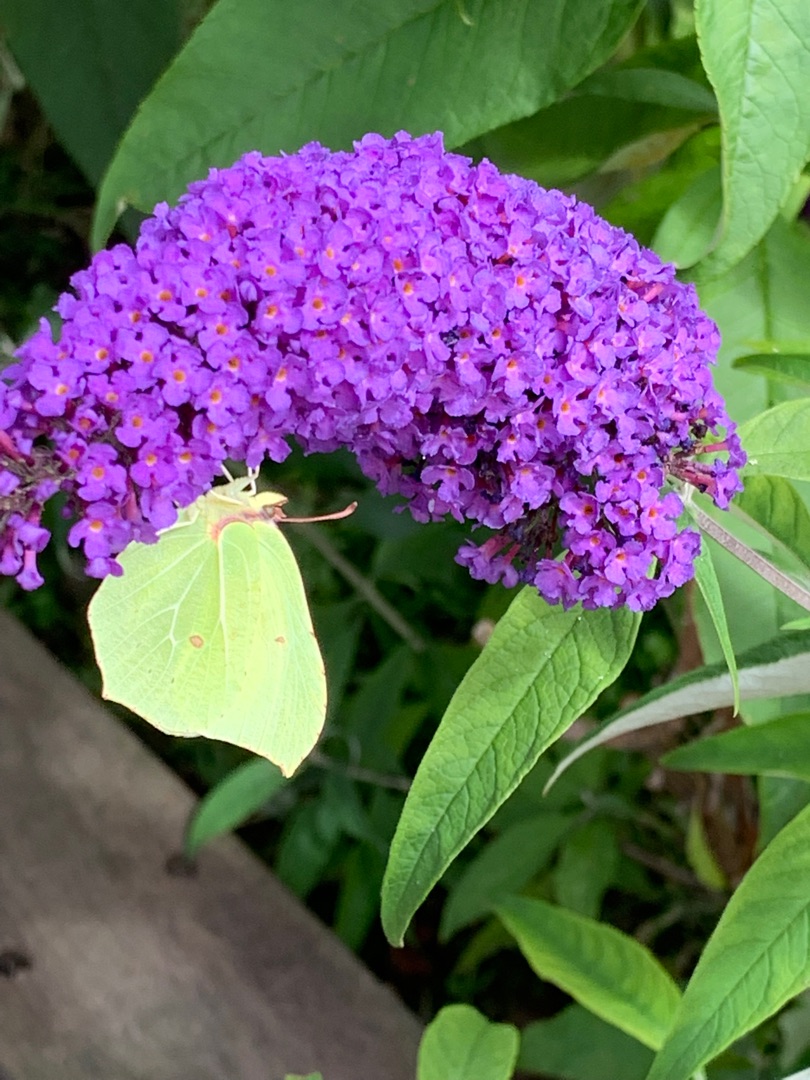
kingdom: Animalia
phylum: Arthropoda
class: Insecta
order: Lepidoptera
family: Pieridae
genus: Gonepteryx
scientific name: Gonepteryx rhamni
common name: Citronsommerfugl
